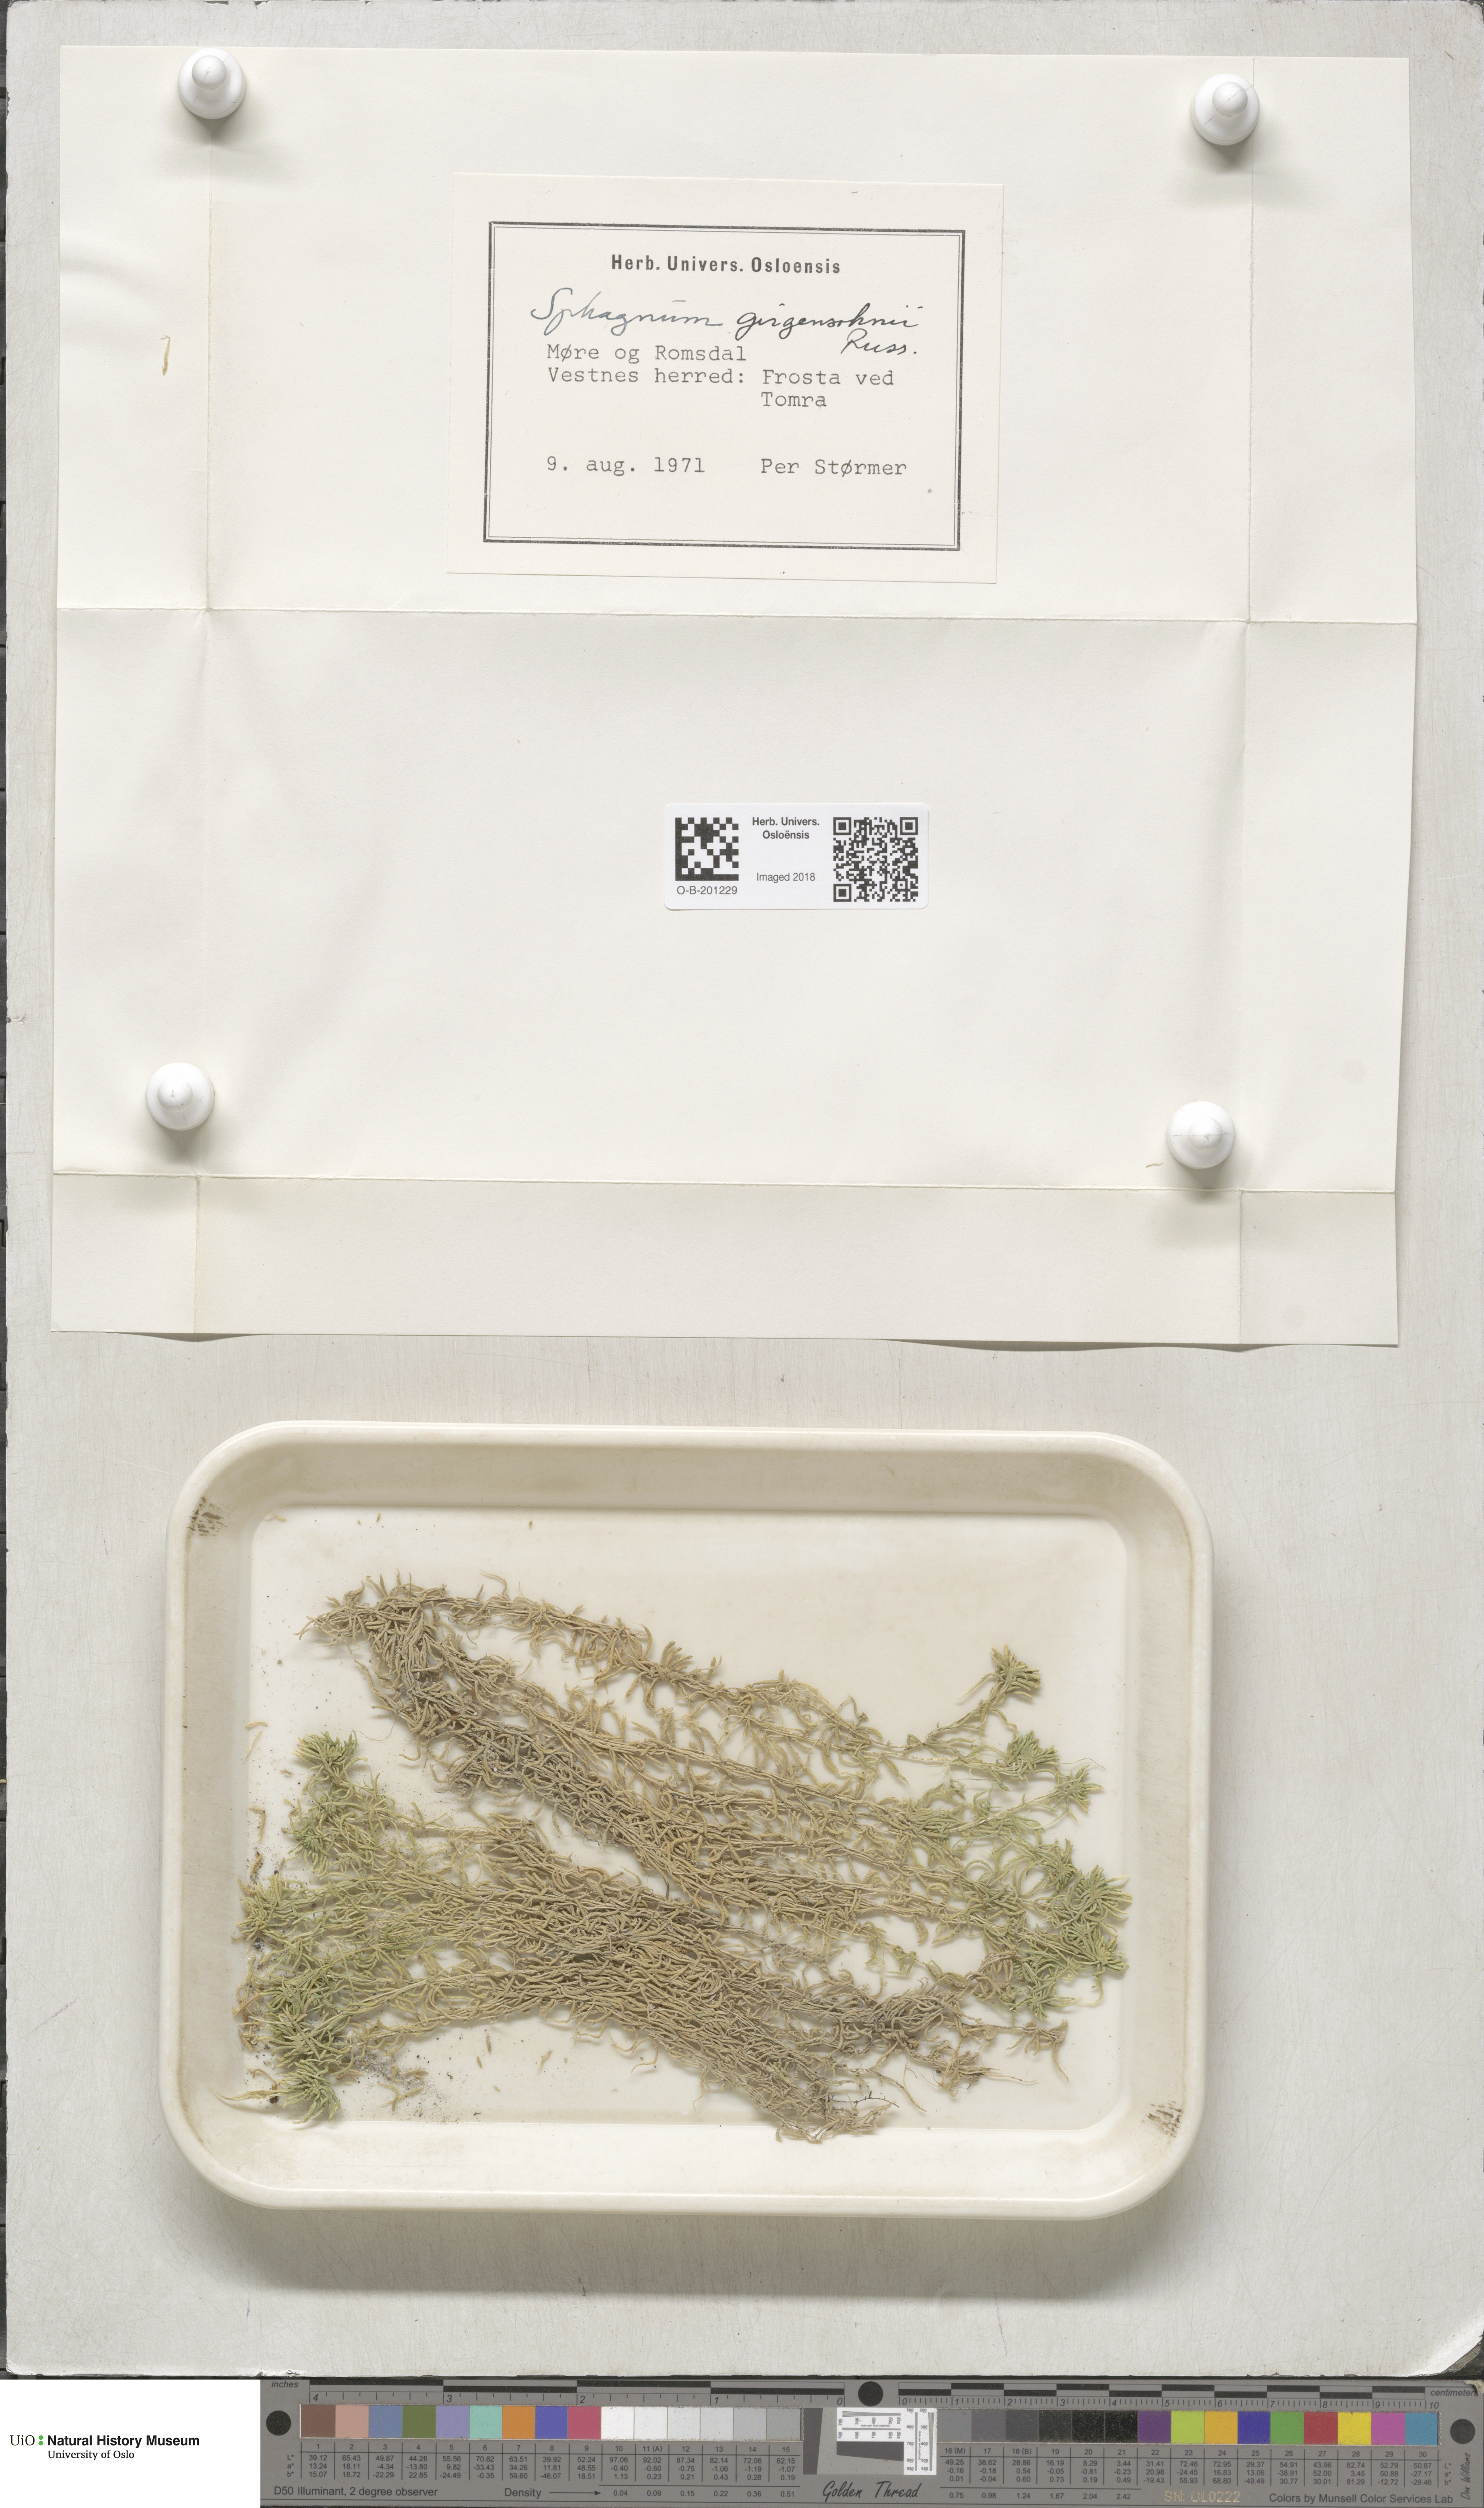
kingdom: Plantae
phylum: Bryophyta
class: Sphagnopsida
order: Sphagnales
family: Sphagnaceae
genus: Sphagnum
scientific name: Sphagnum girgensohnii
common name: Girgensohn's peat moss
